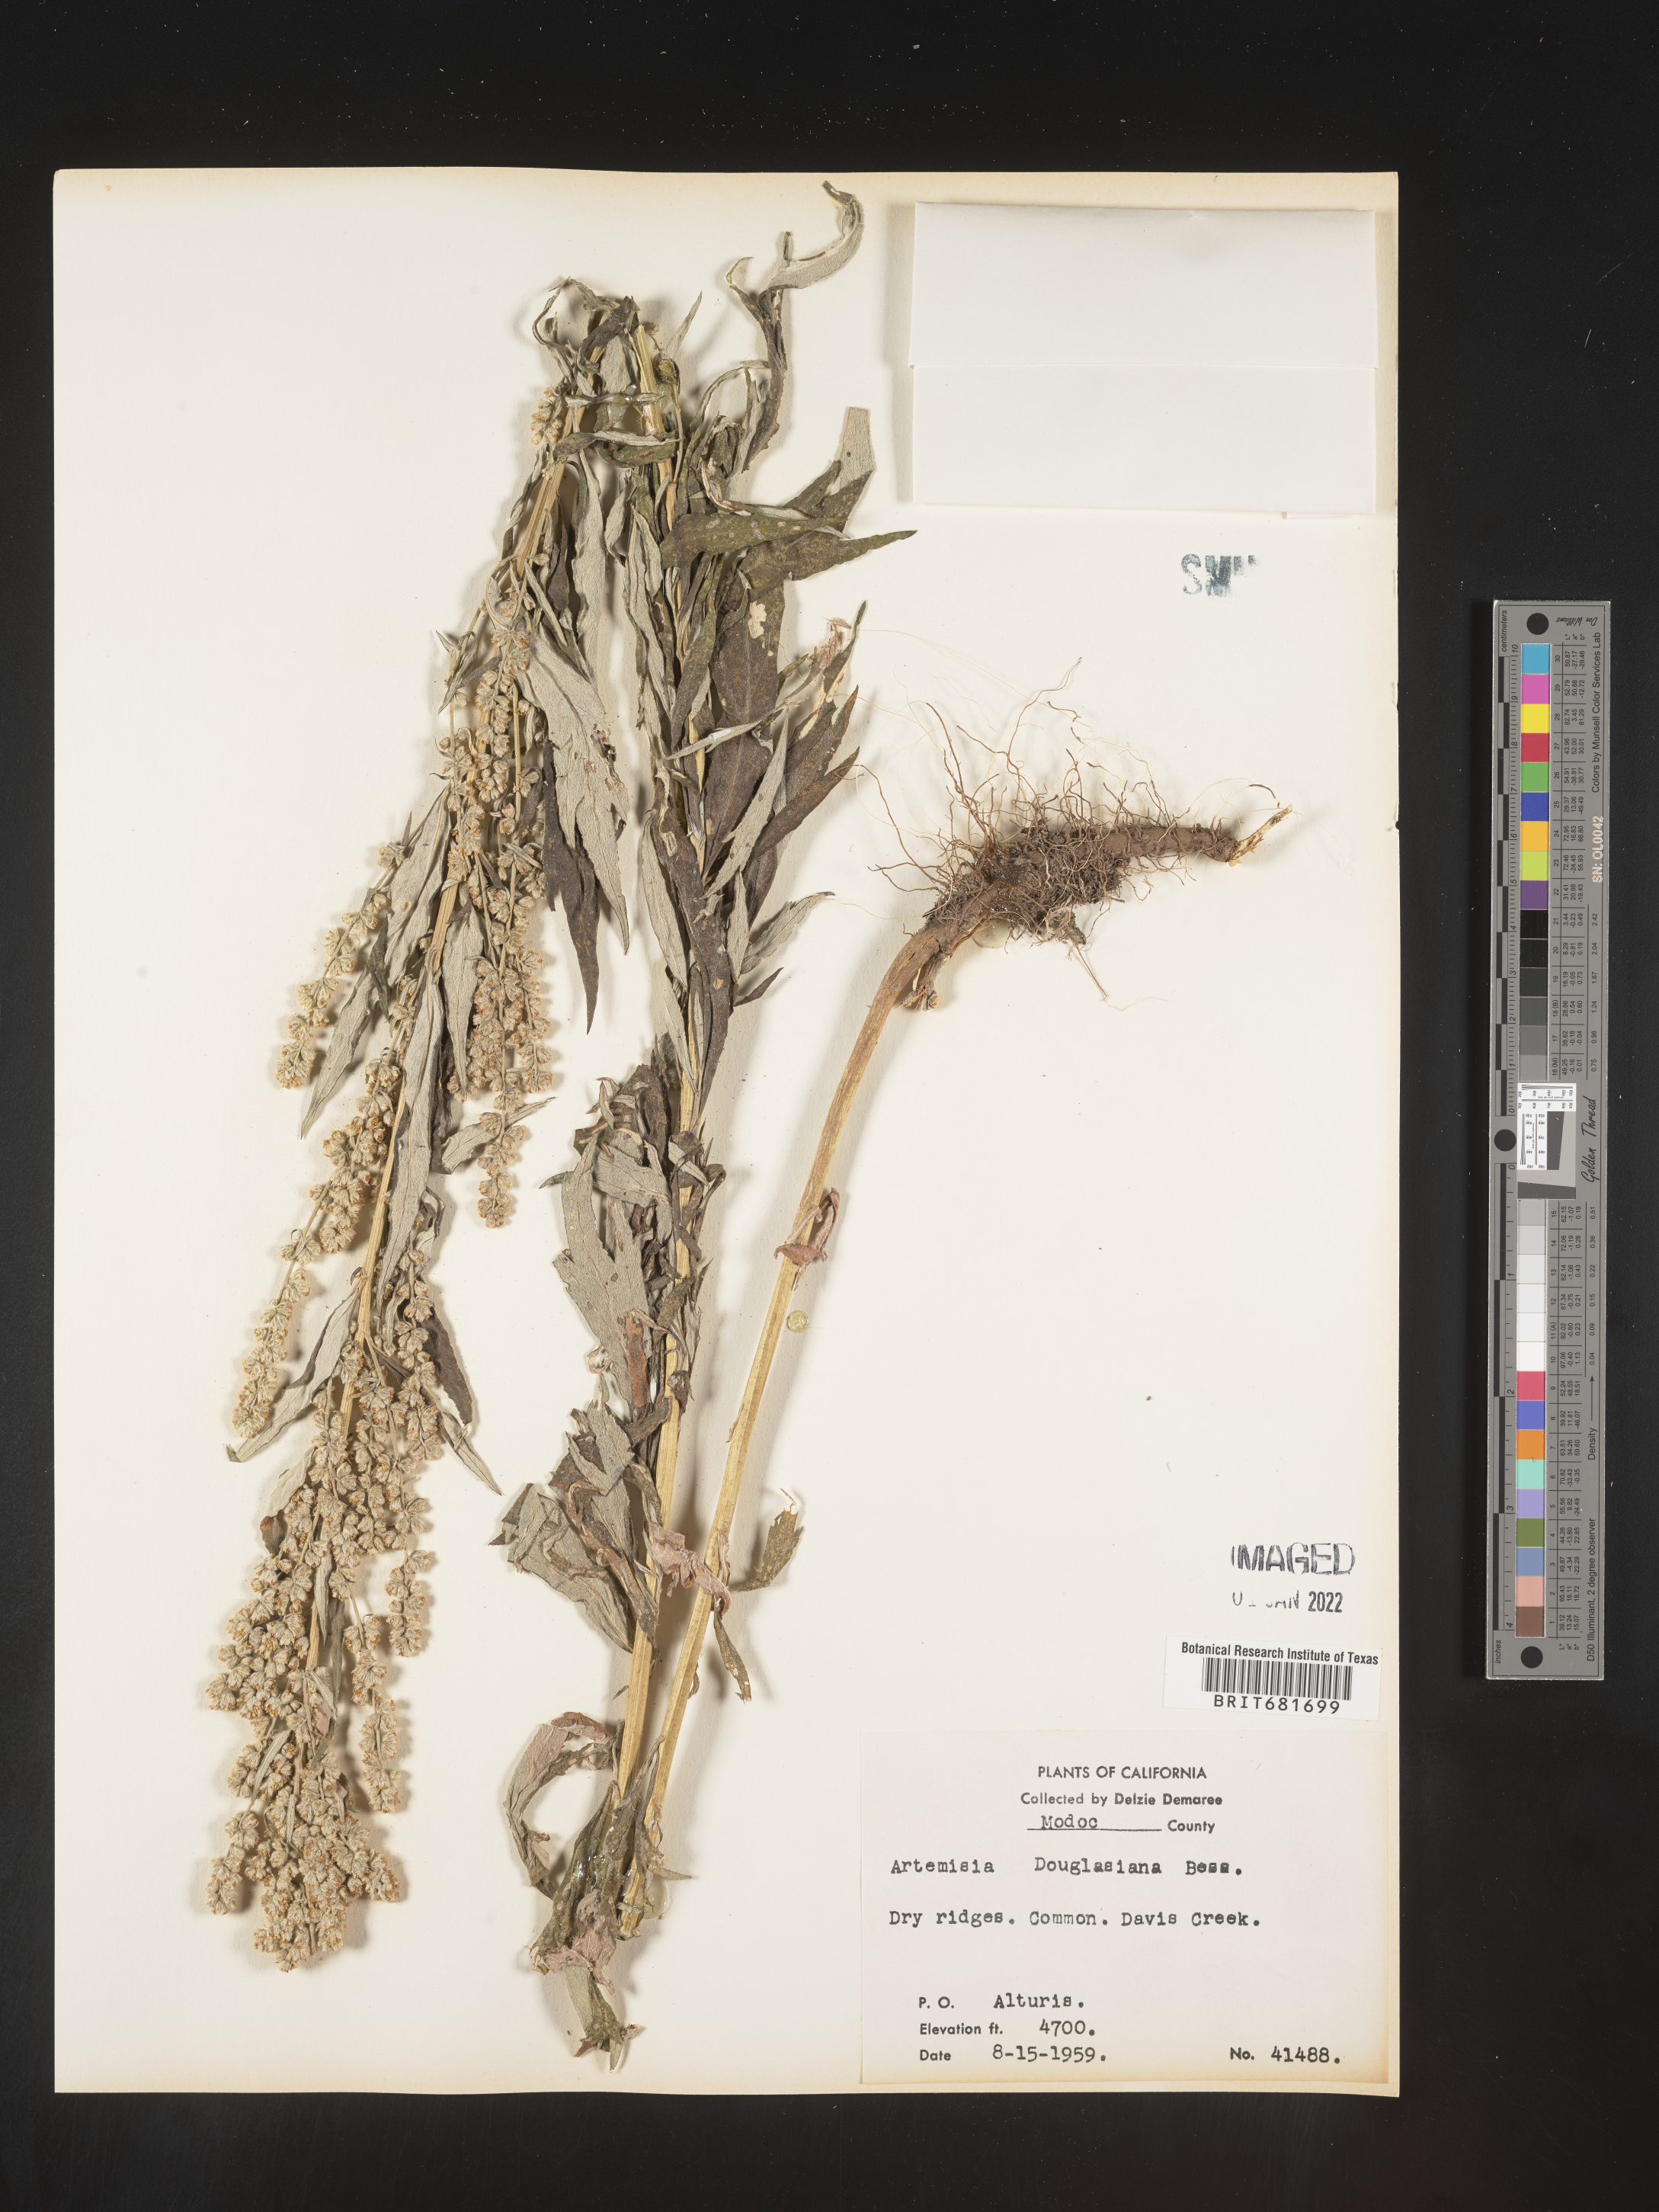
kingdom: Plantae
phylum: Tracheophyta
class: Magnoliopsida
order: Asterales
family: Asteraceae
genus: Artemisia
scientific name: Artemisia douglasiana
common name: Northwest mugwort
